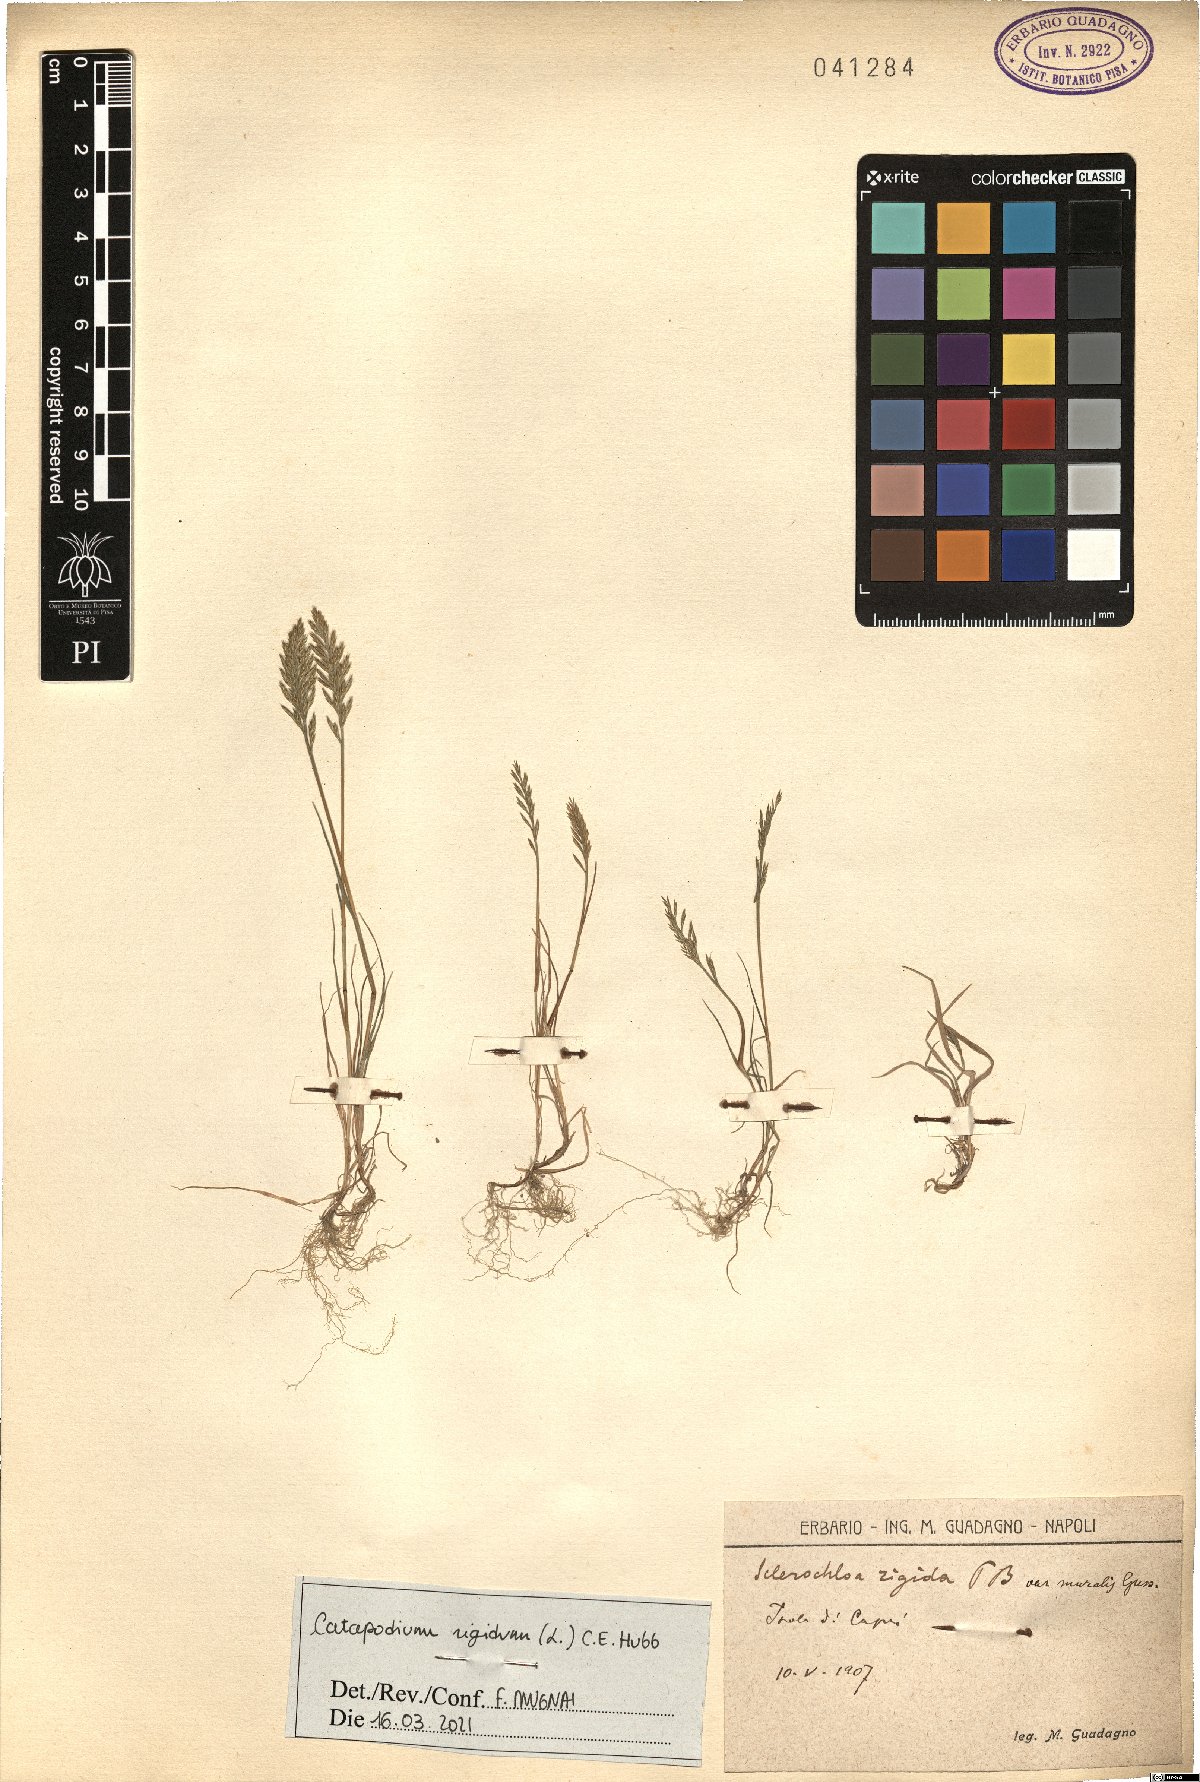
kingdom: Plantae
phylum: Tracheophyta
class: Liliopsida
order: Poales
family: Poaceae
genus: Catapodium
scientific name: Catapodium rigidum
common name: Fern-grass
